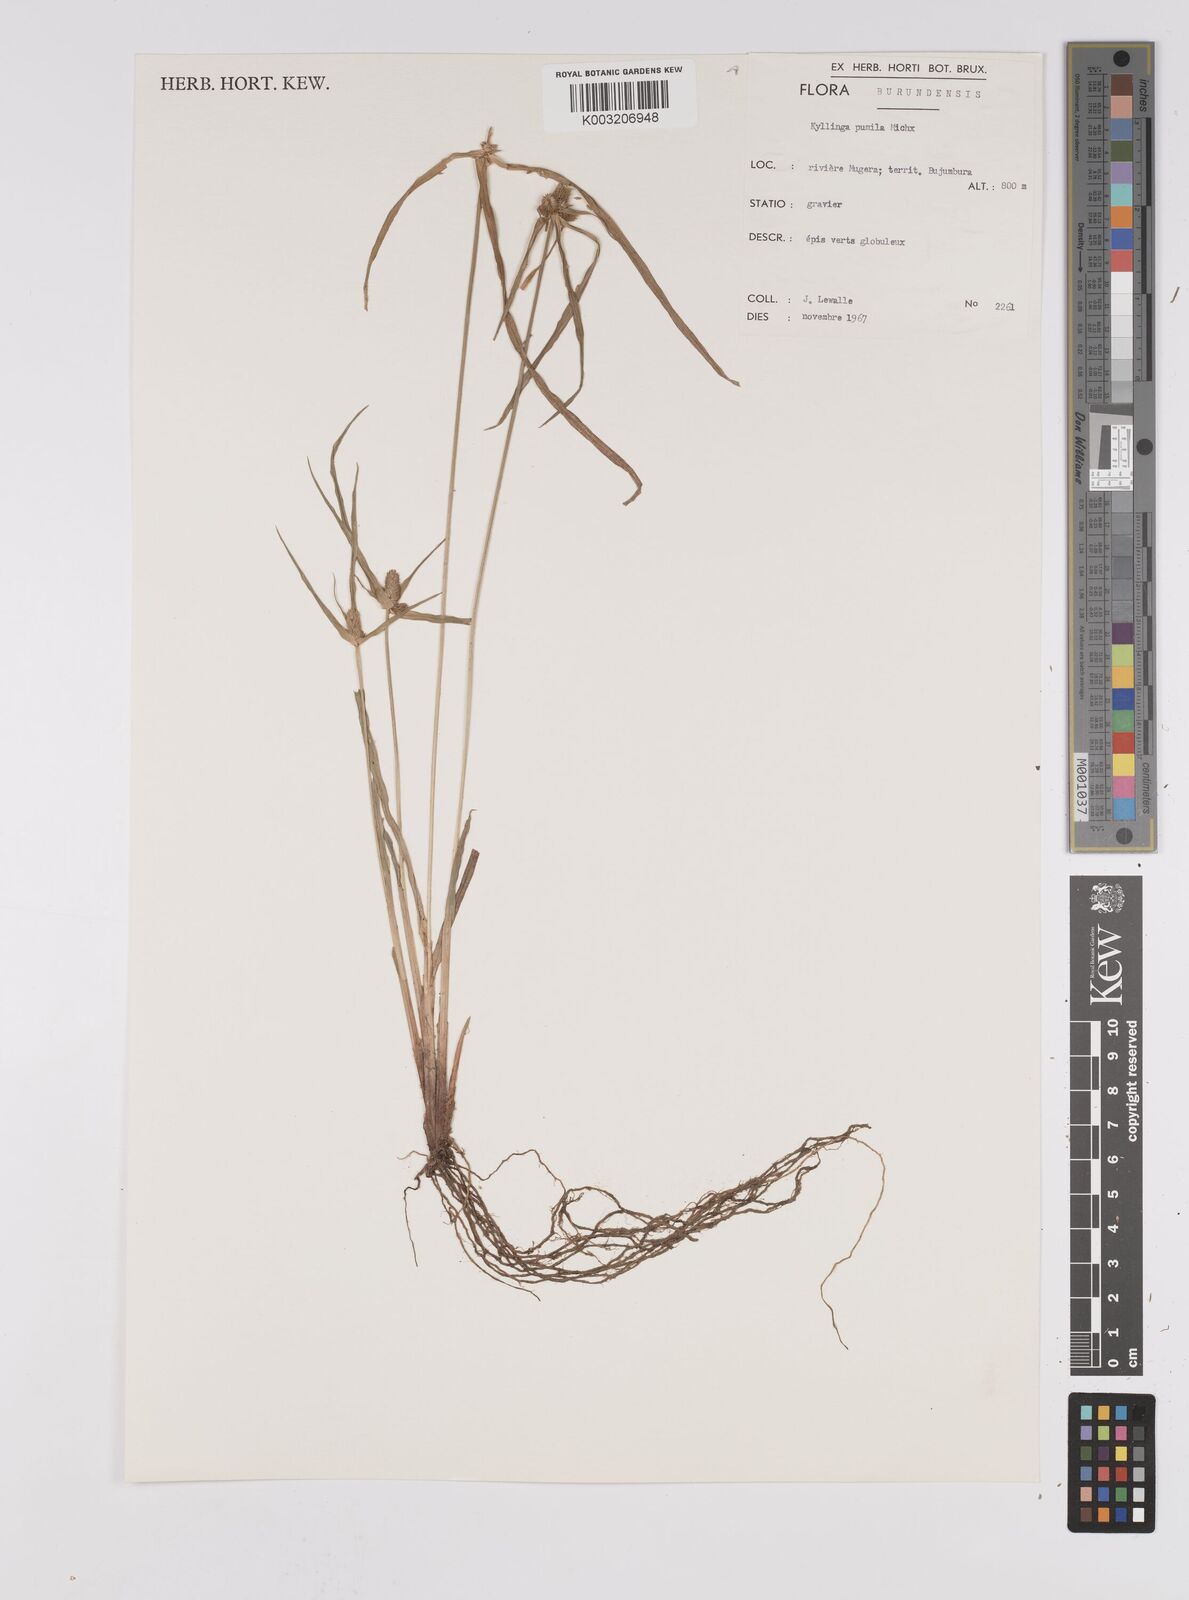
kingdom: Plantae
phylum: Tracheophyta
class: Liliopsida
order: Poales
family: Cyperaceae
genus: Cyperus
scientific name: Cyperus hortensis
